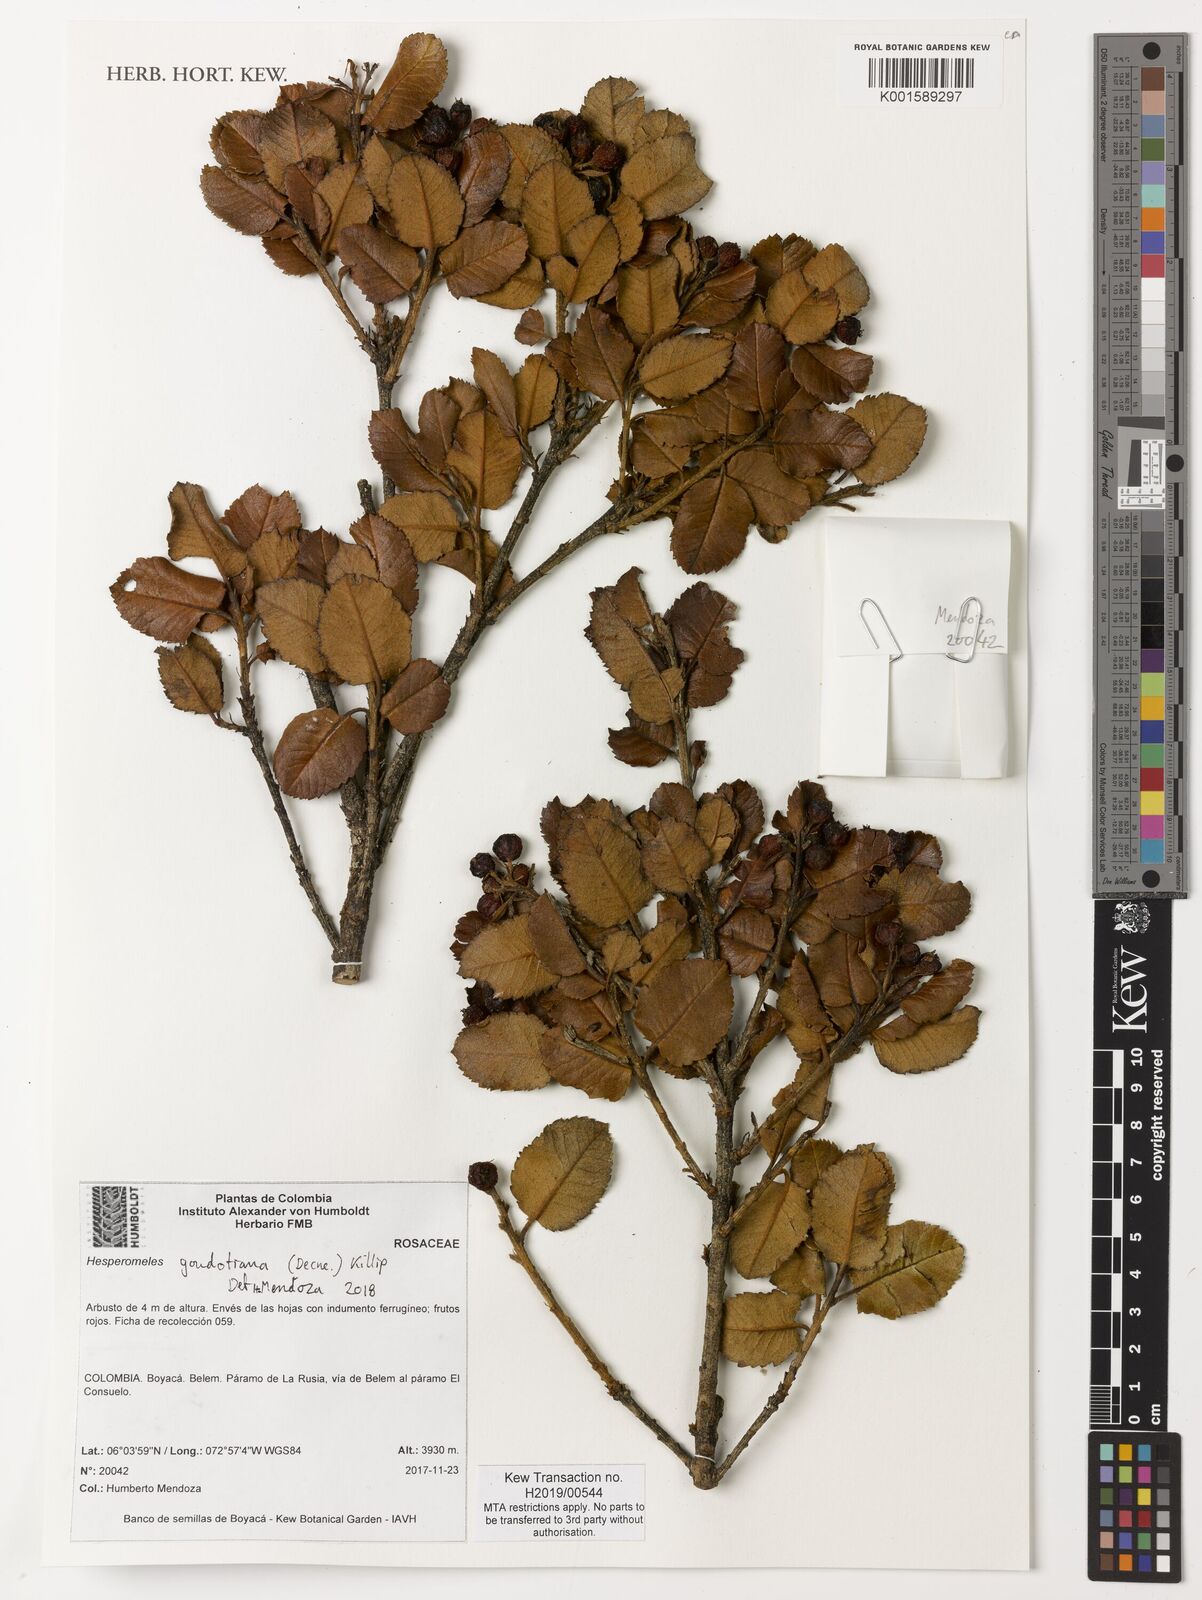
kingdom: Plantae
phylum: Tracheophyta
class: Magnoliopsida
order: Rosales
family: Rosaceae
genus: Hesperomeles
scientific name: Hesperomeles goudotiana
